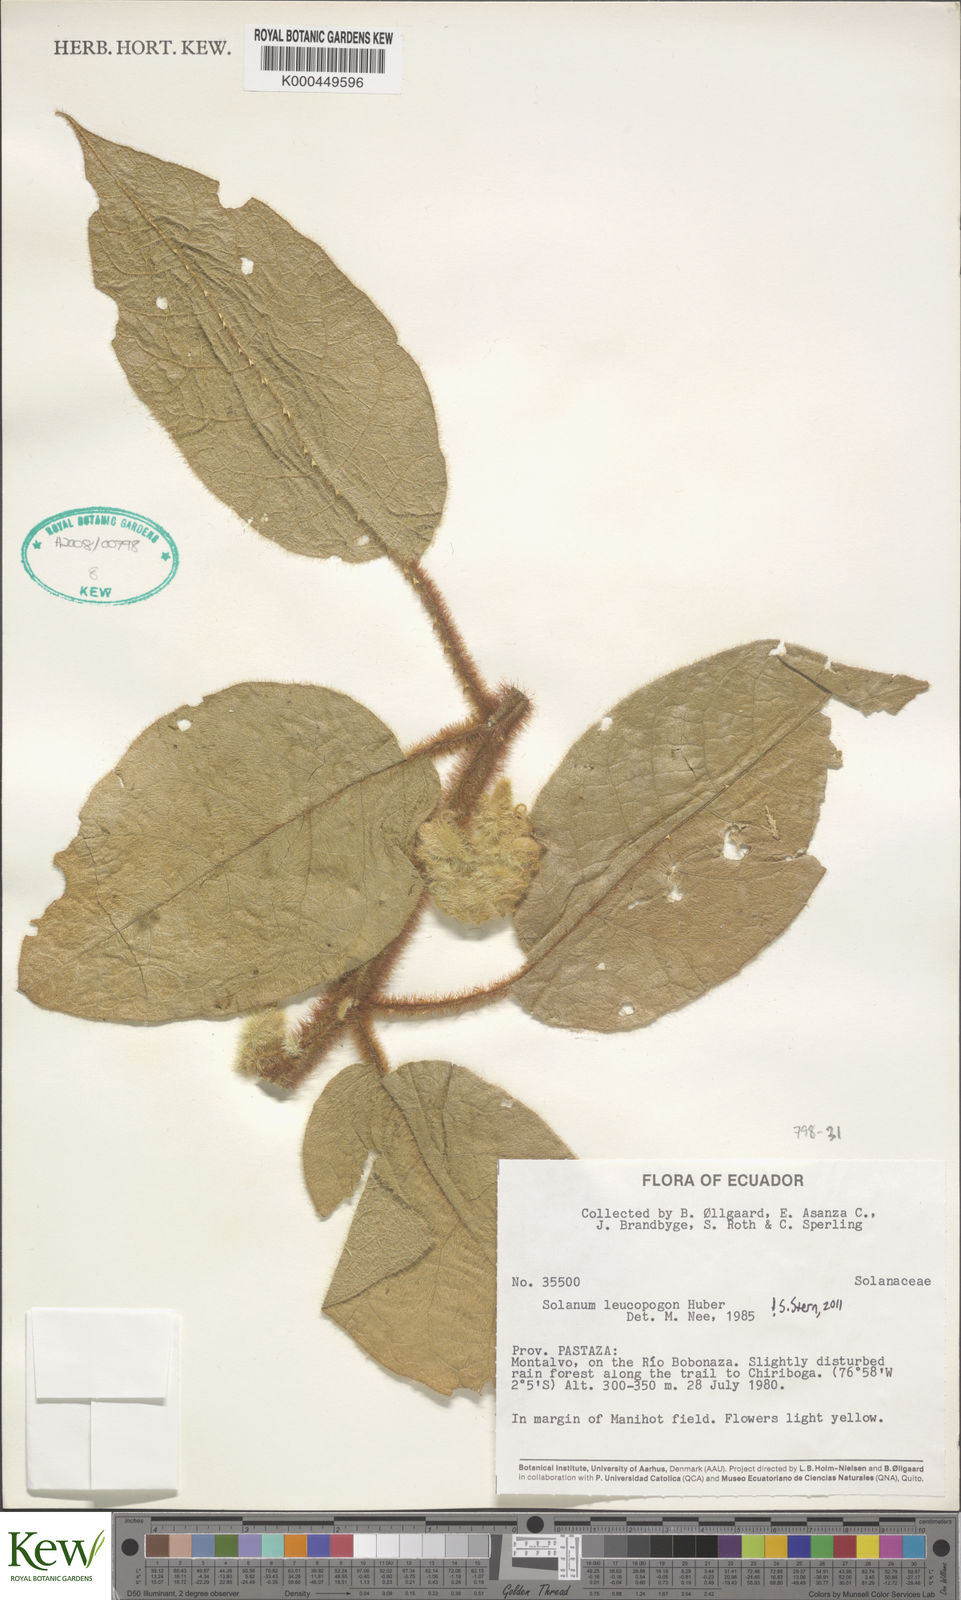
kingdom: Plantae
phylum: Tracheophyta
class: Magnoliopsida
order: Solanales
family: Solanaceae
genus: Solanum
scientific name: Solanum leucopogon
